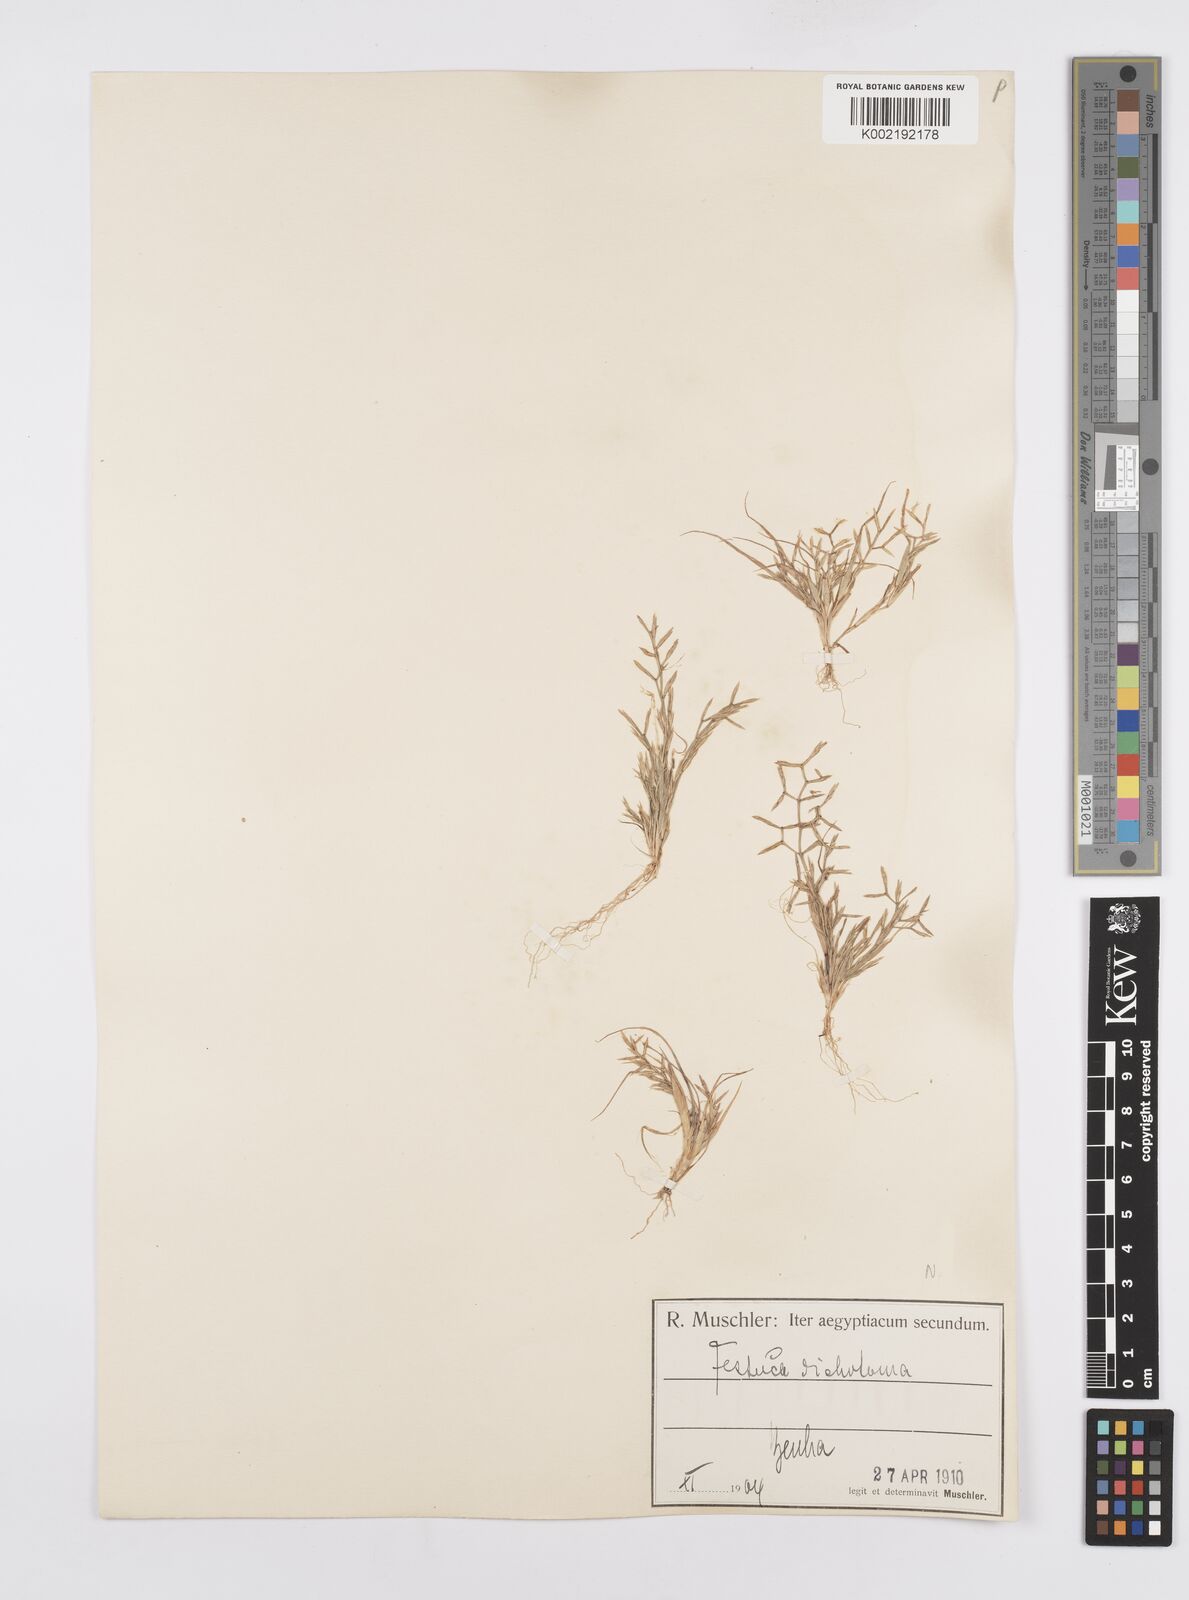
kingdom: Plantae
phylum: Tracheophyta
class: Liliopsida
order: Poales
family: Poaceae
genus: Cutandia
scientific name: Cutandia dichotoma
